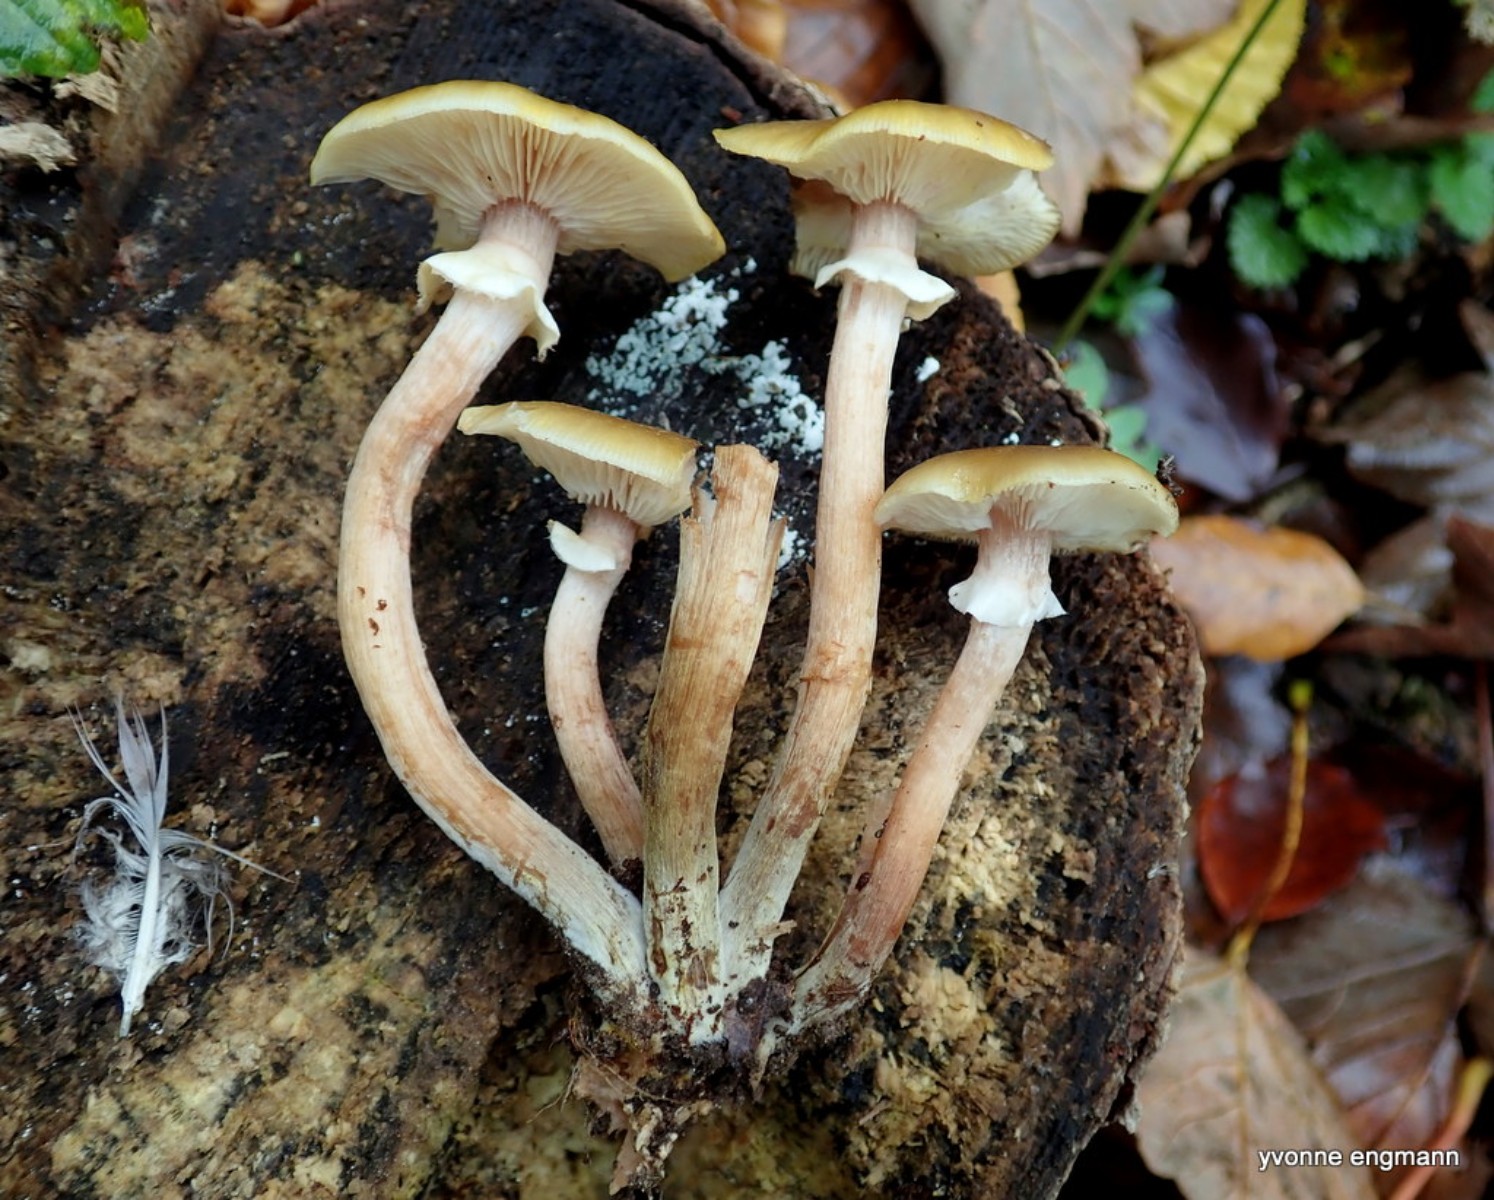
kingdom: Fungi
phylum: Basidiomycota
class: Agaricomycetes
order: Agaricales
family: Physalacriaceae
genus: Armillaria
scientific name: Armillaria mellea
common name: ægte honningsvamp
